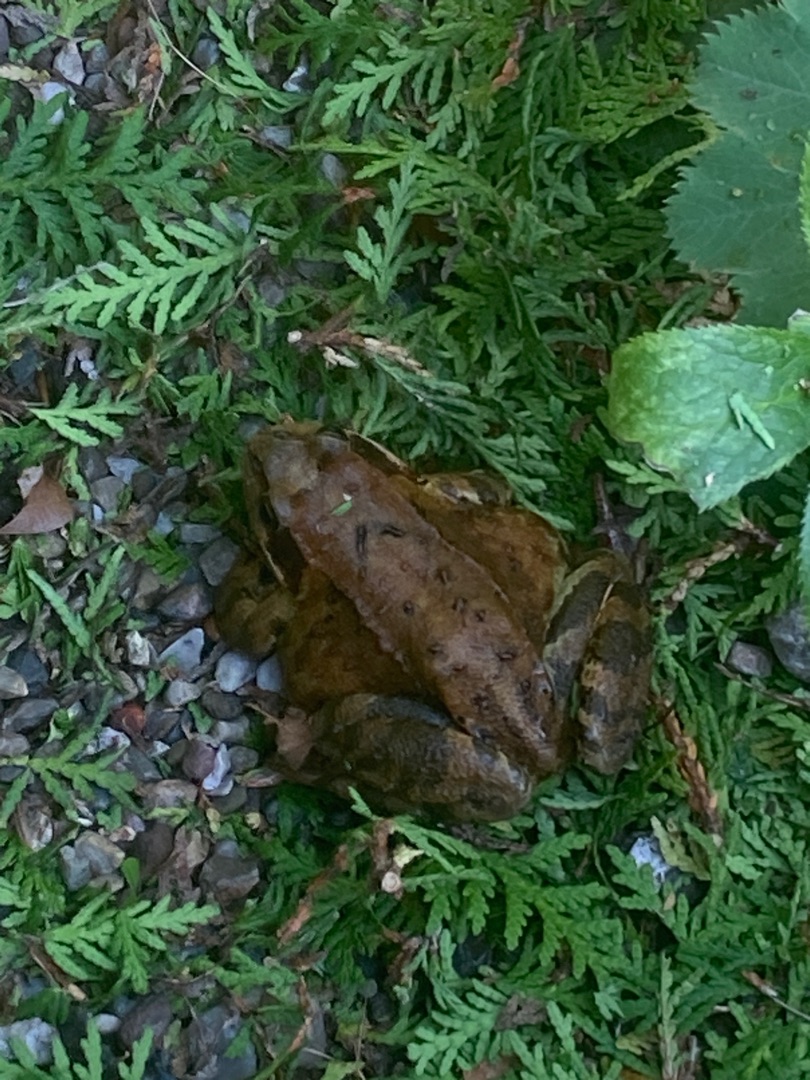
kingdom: Animalia
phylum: Chordata
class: Amphibia
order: Anura
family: Ranidae
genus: Rana
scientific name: Rana temporaria
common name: Butsnudet frø
